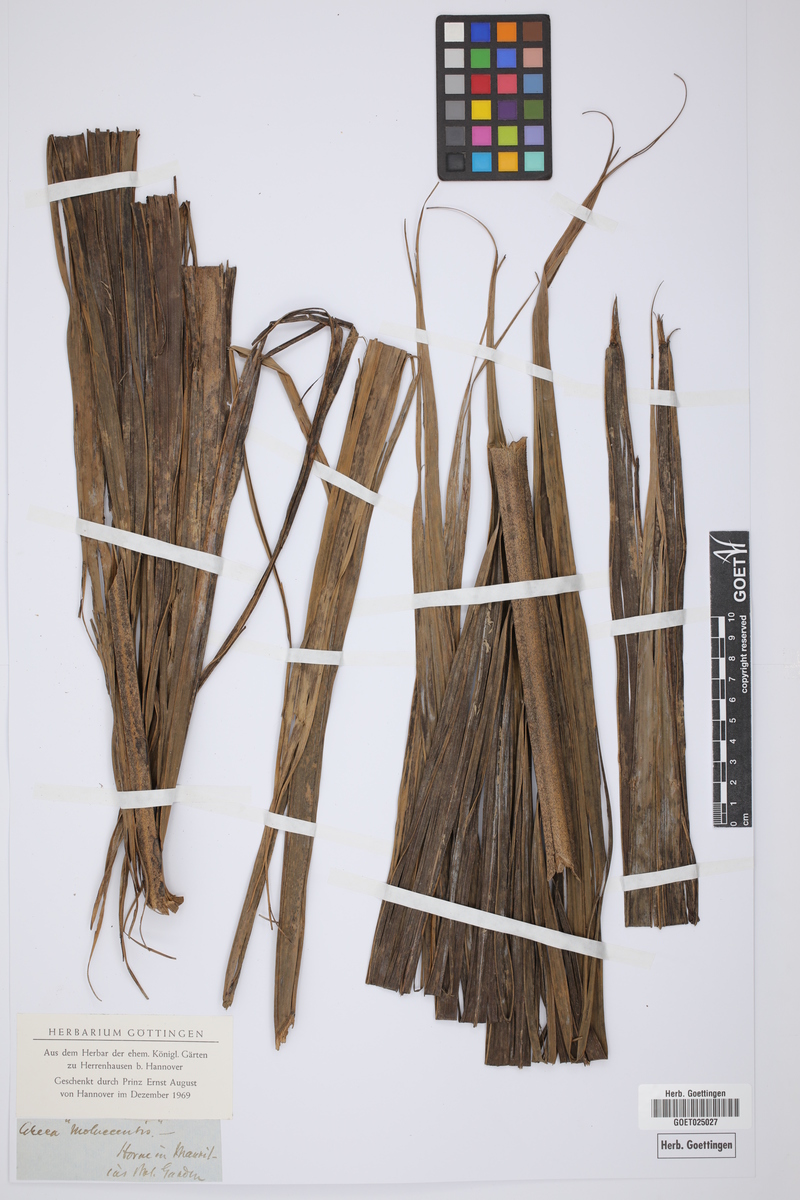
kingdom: Plantae
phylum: Tracheophyta
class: Liliopsida
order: Arecales
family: Arecaceae
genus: Areca
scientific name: Areca
